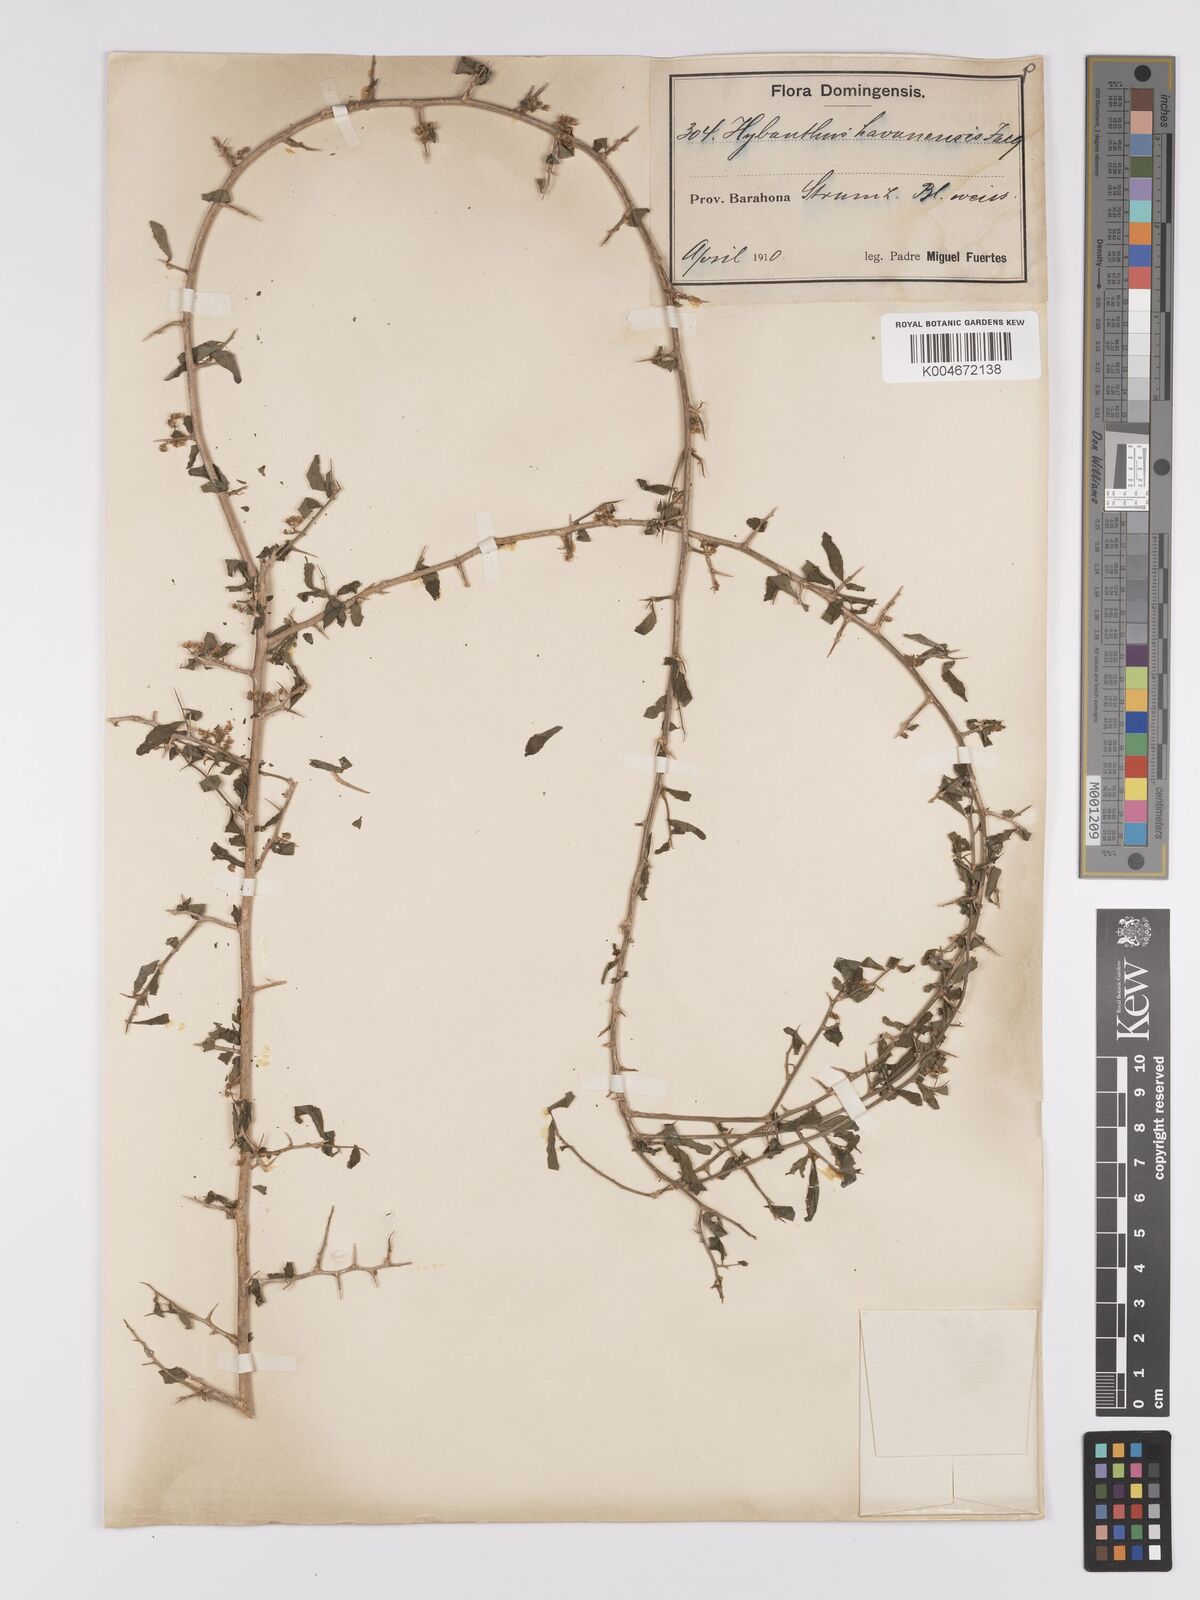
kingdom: Plantae
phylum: Tracheophyta
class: Magnoliopsida
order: Malpighiales
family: Violaceae
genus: Hybanthus
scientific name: Hybanthus havanensis
